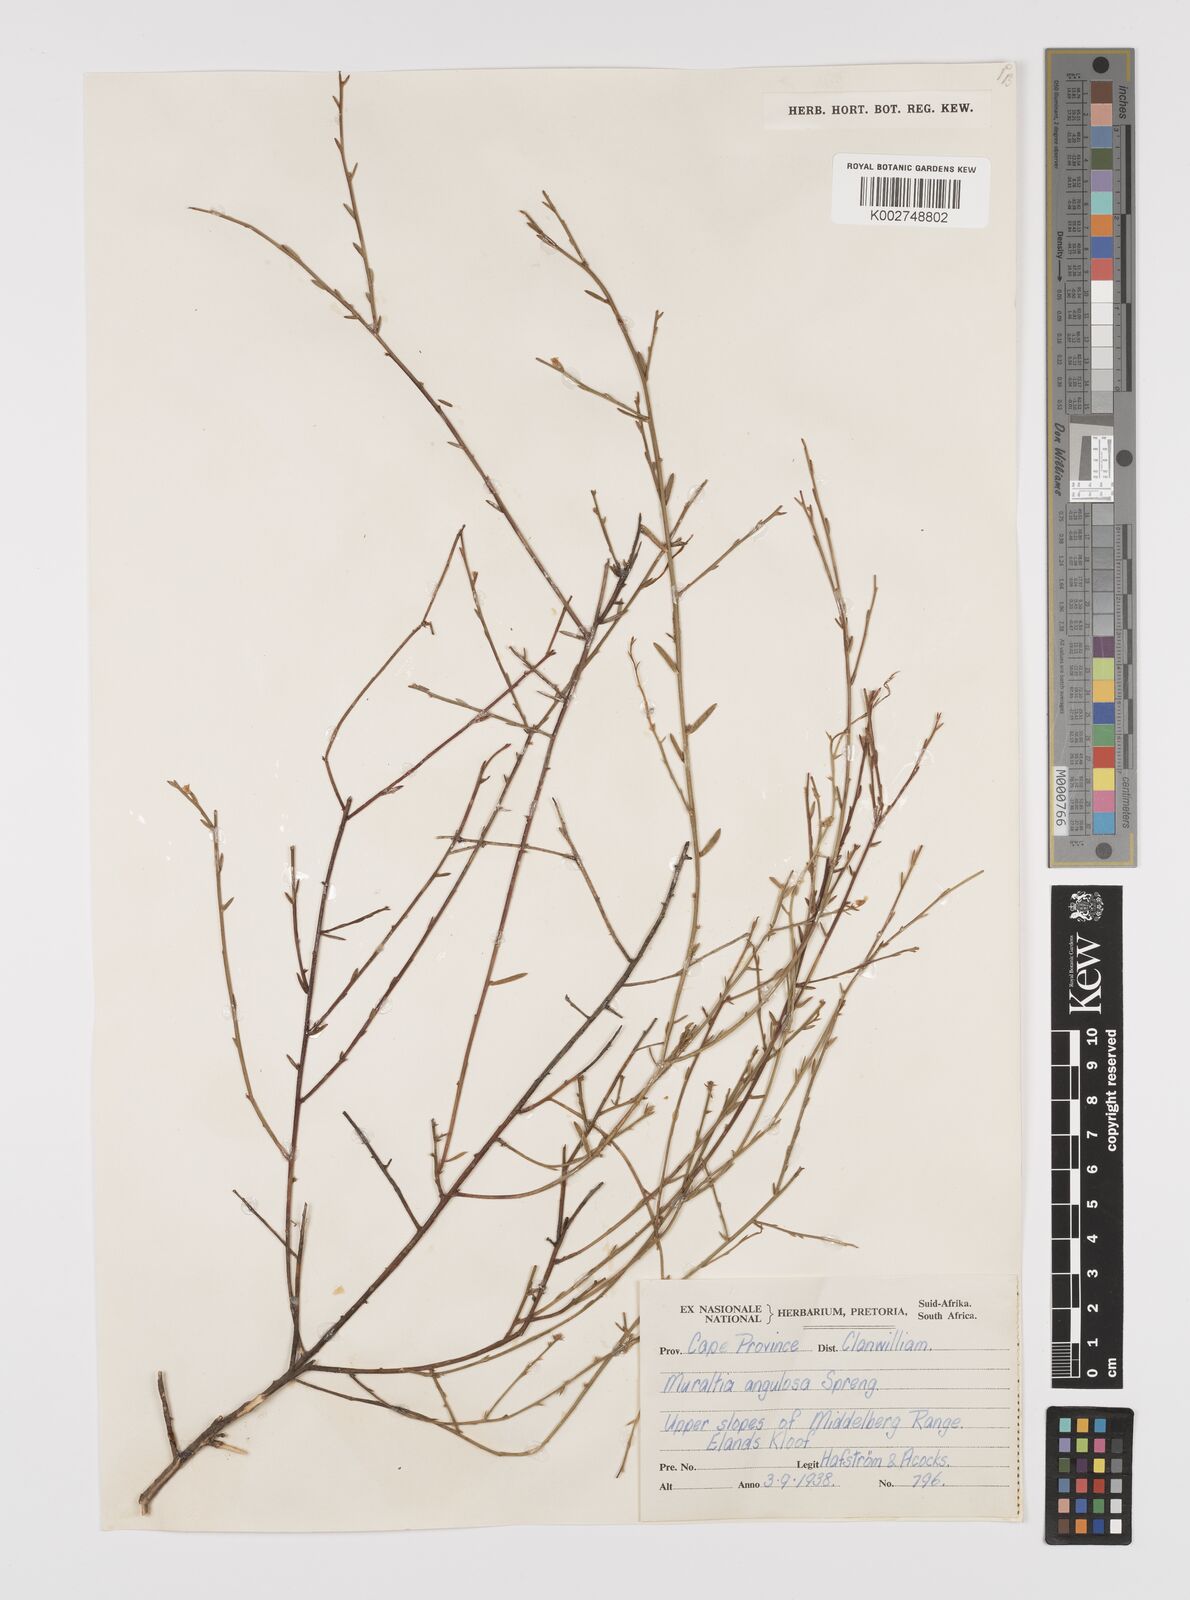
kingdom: Plantae
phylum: Tracheophyta
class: Magnoliopsida
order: Fabales
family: Polygalaceae
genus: Muraltia
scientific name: Muraltia angulosa
